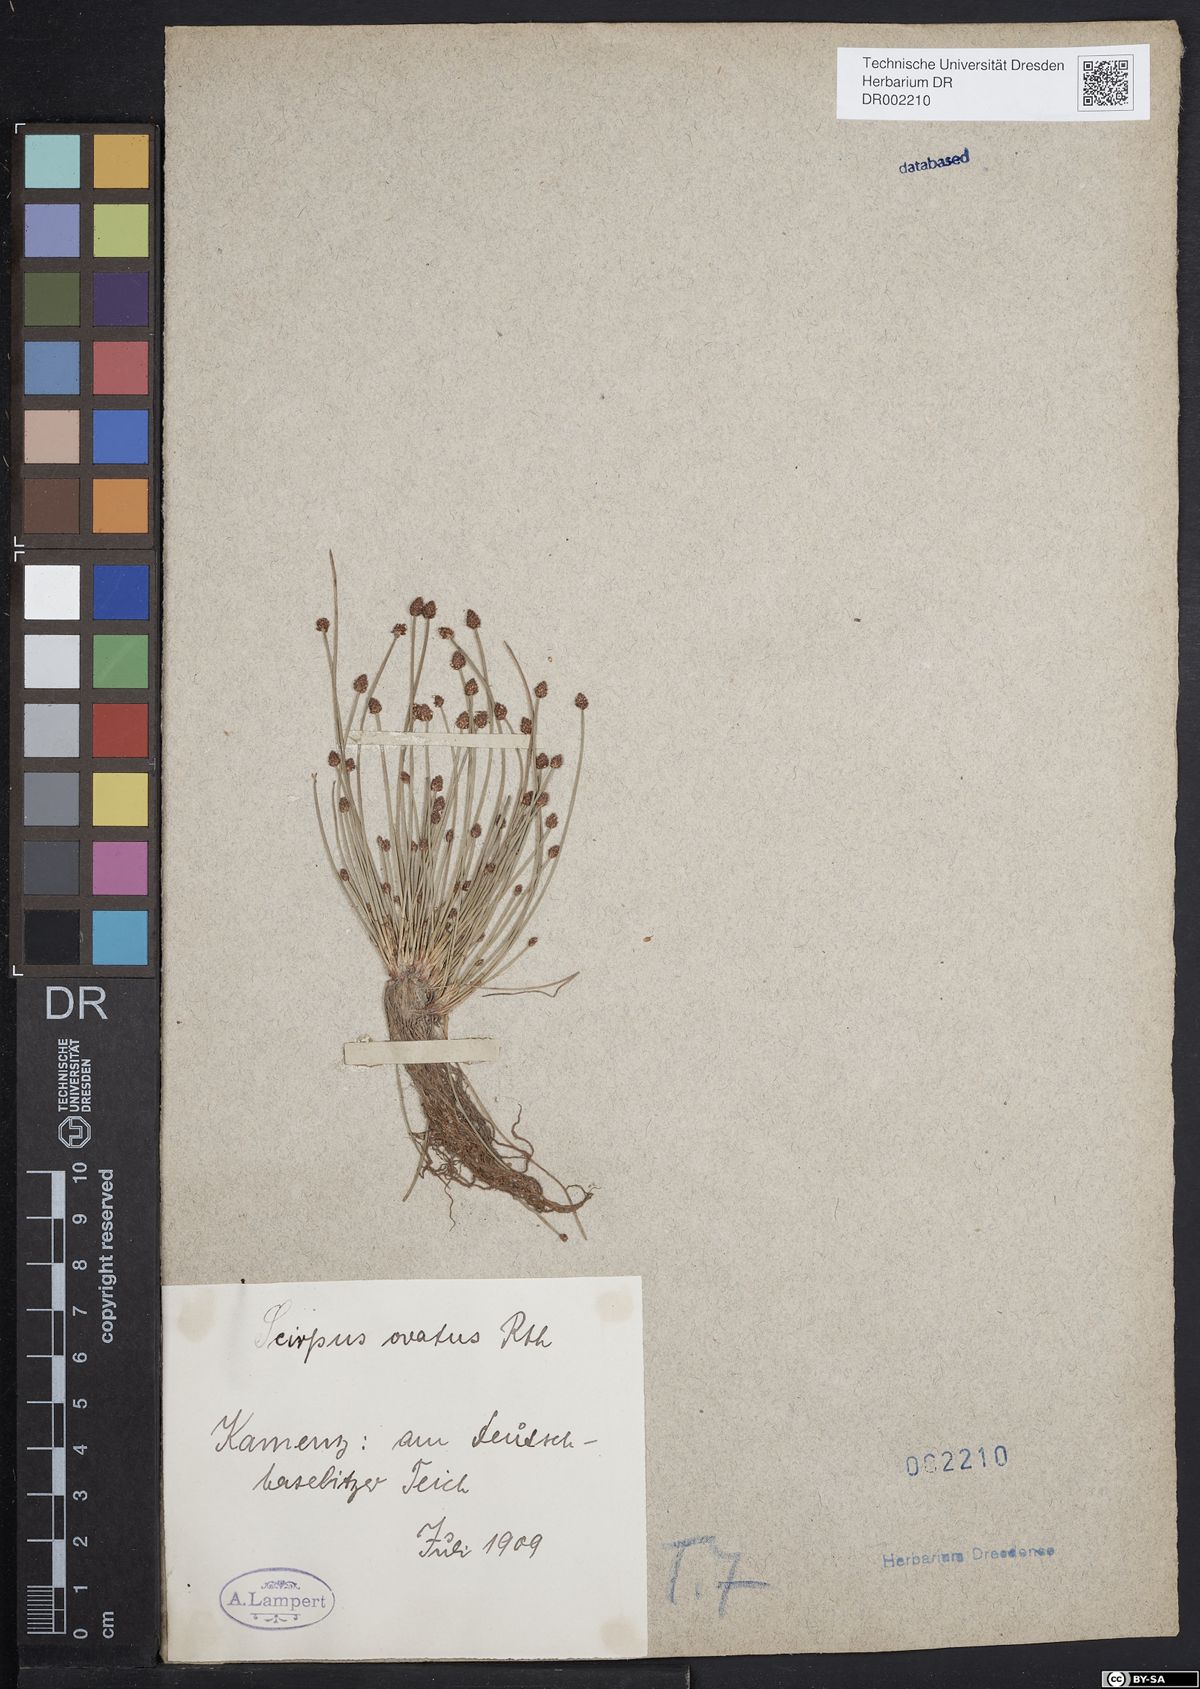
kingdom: Plantae
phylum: Tracheophyta
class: Liliopsida
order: Poales
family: Cyperaceae
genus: Eleocharis
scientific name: Eleocharis ovata
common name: Oval spike-rush
